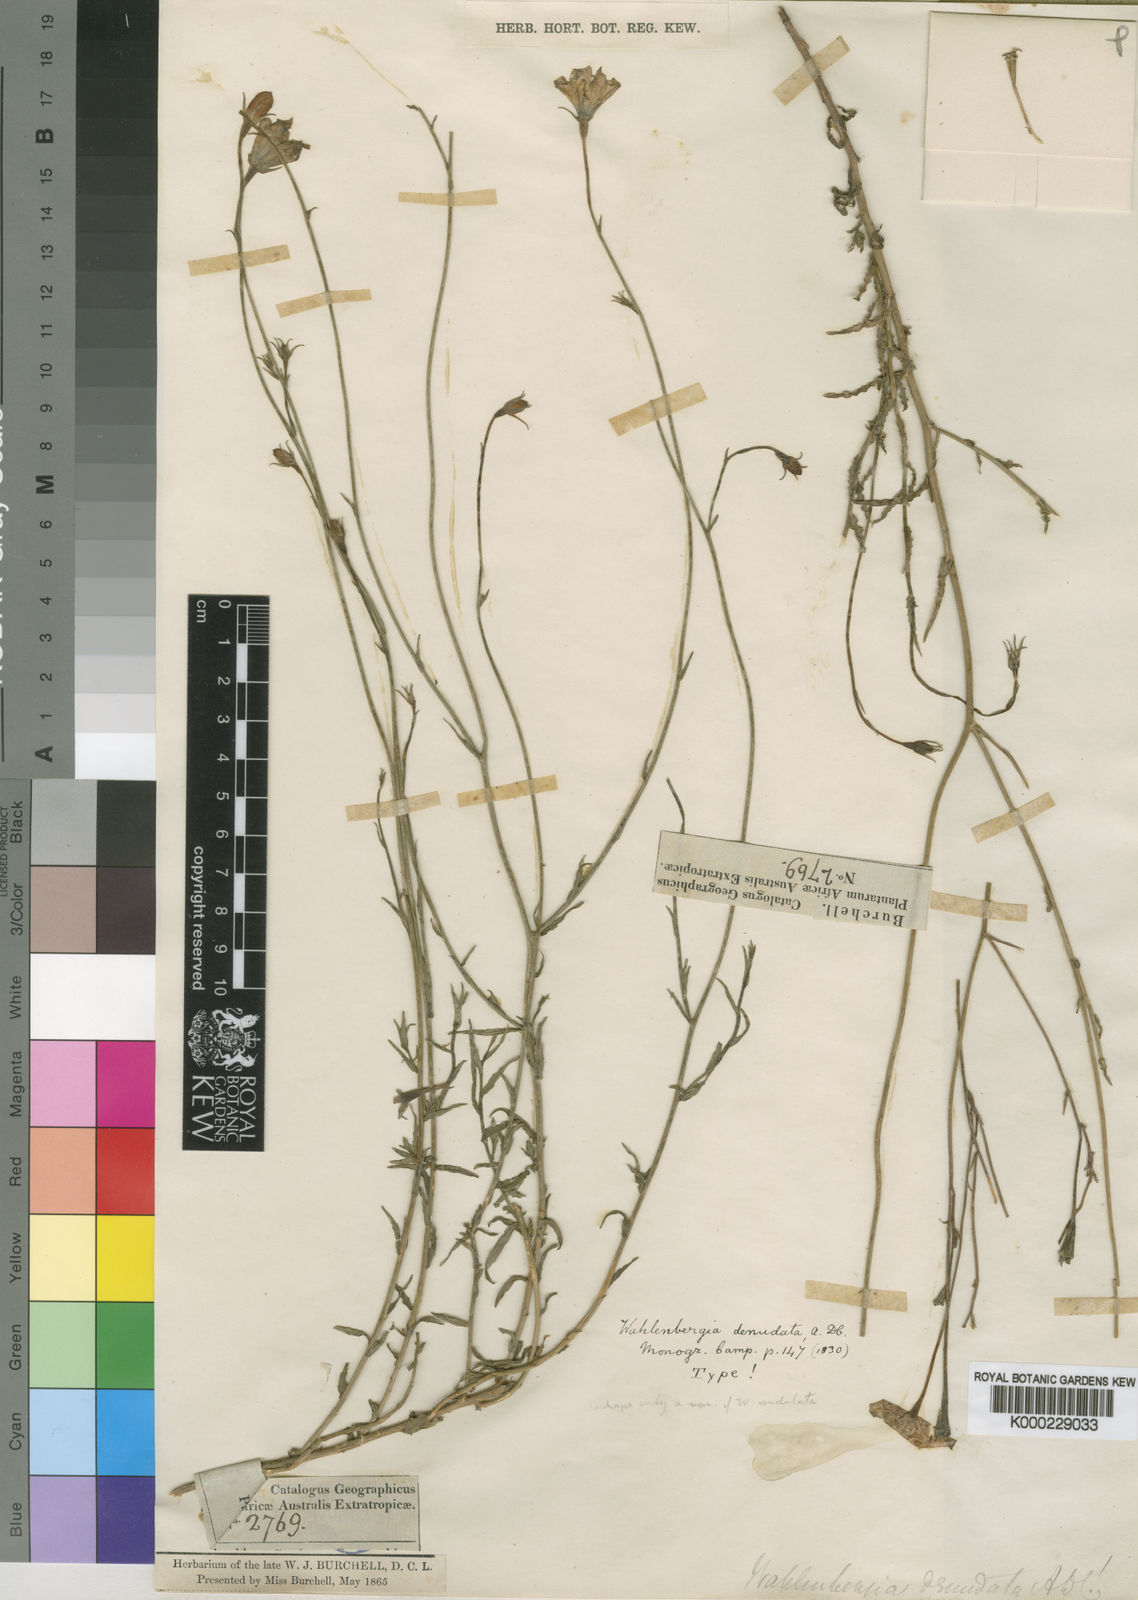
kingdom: Plantae
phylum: Tracheophyta
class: Magnoliopsida
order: Asterales
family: Campanulaceae
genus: Wahlenbergia
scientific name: Wahlenbergia denudata
